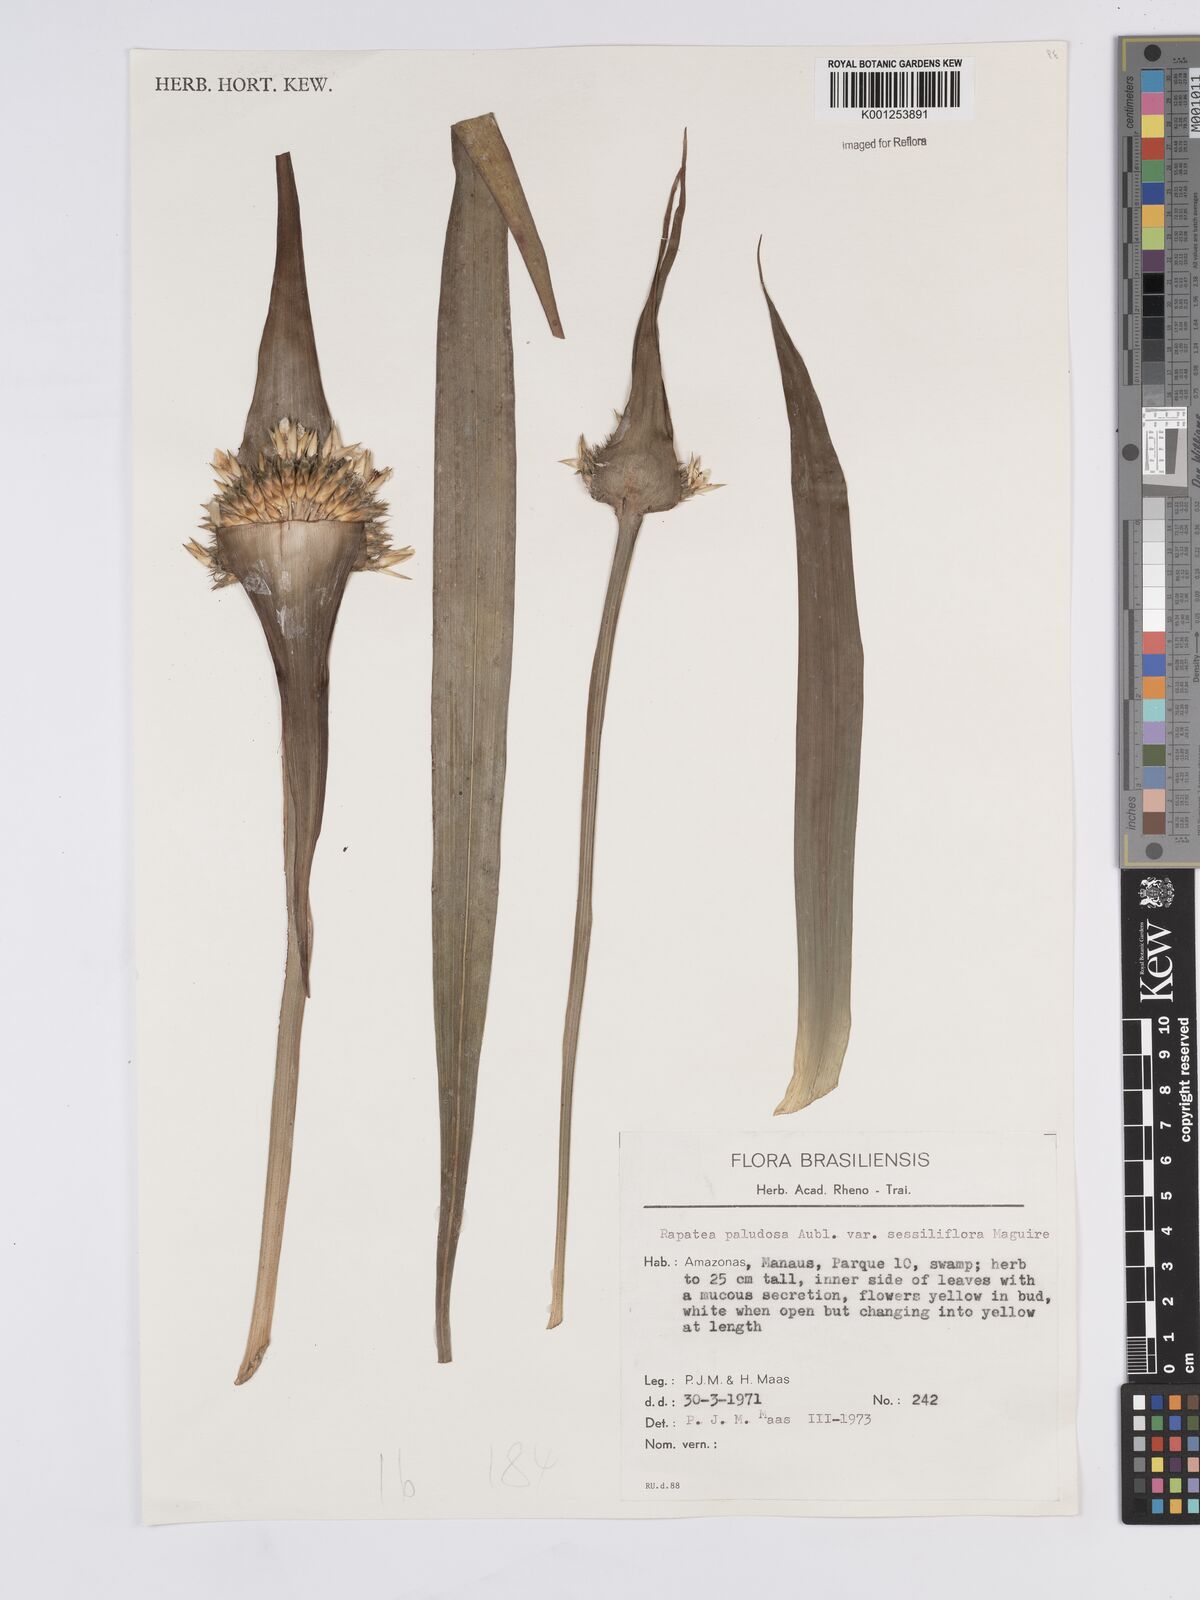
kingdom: Plantae
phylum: Tracheophyta
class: Liliopsida
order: Poales
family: Rapateaceae
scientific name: Rapateaceae
